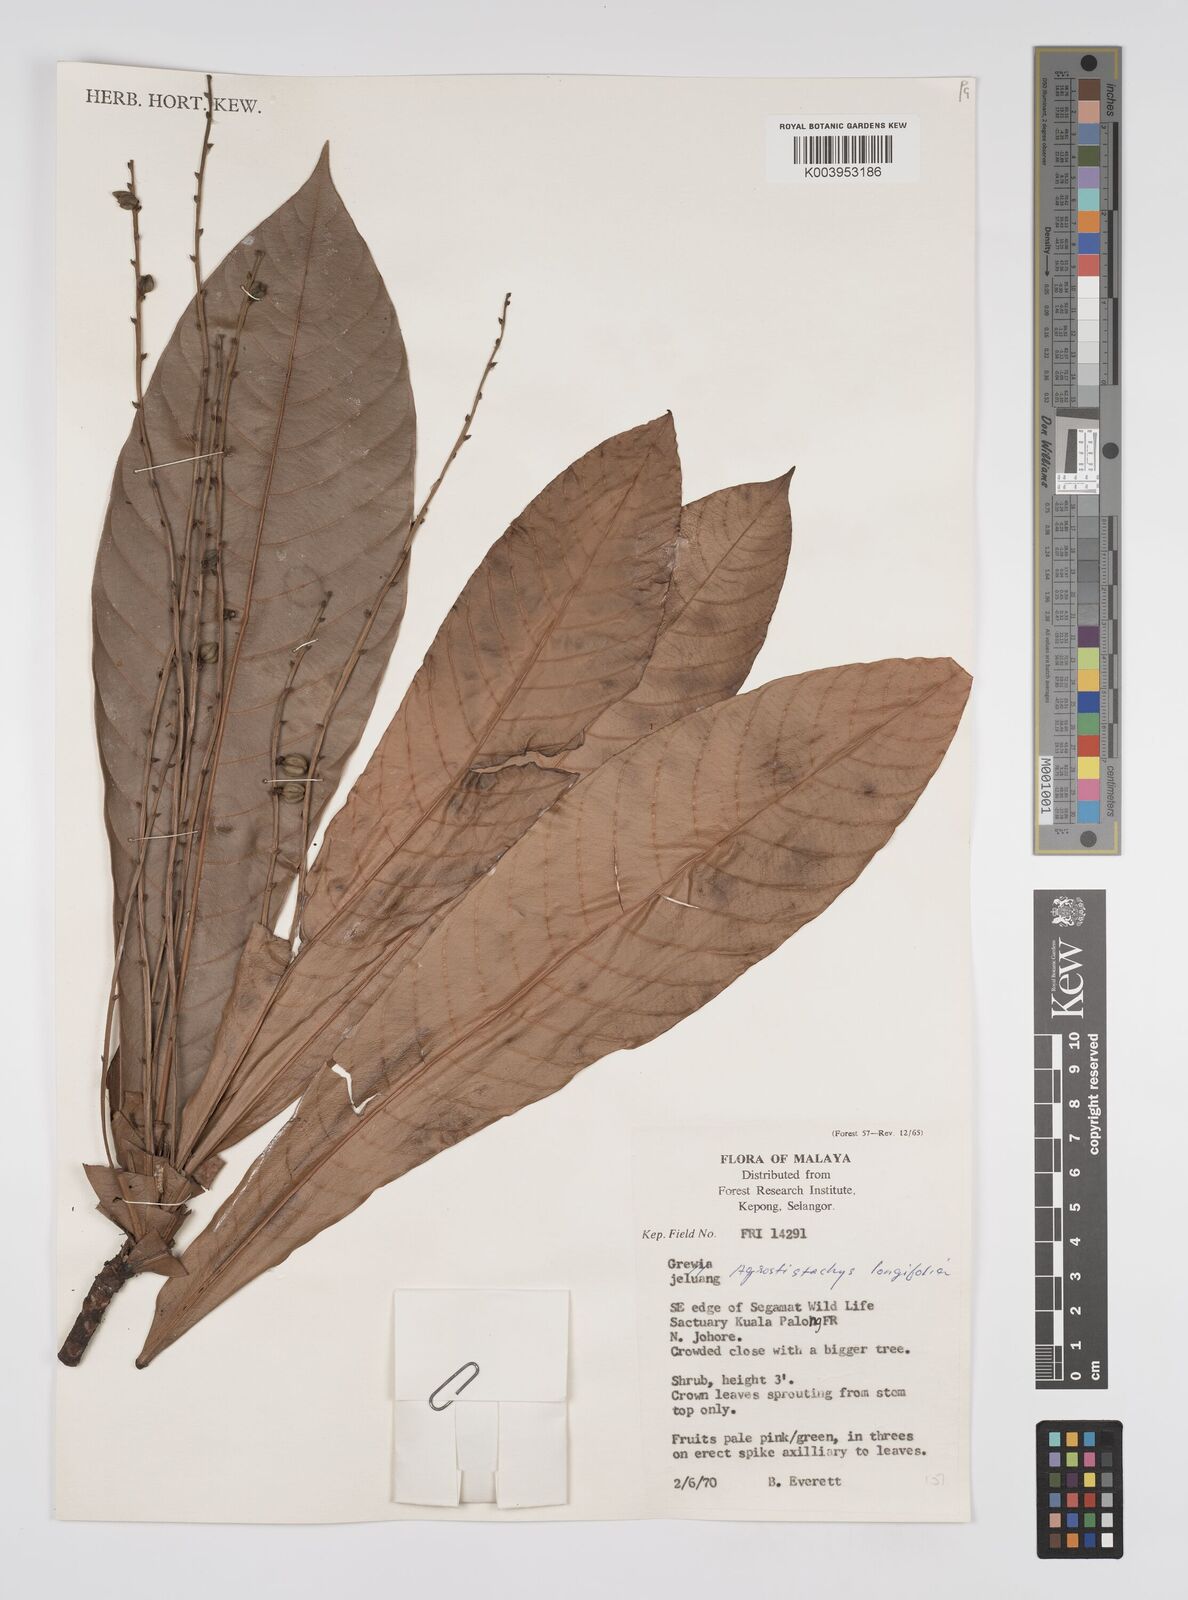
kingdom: Plantae
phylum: Tracheophyta
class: Magnoliopsida
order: Malpighiales
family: Euphorbiaceae
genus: Agrostistachys
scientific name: Agrostistachys borneensis
